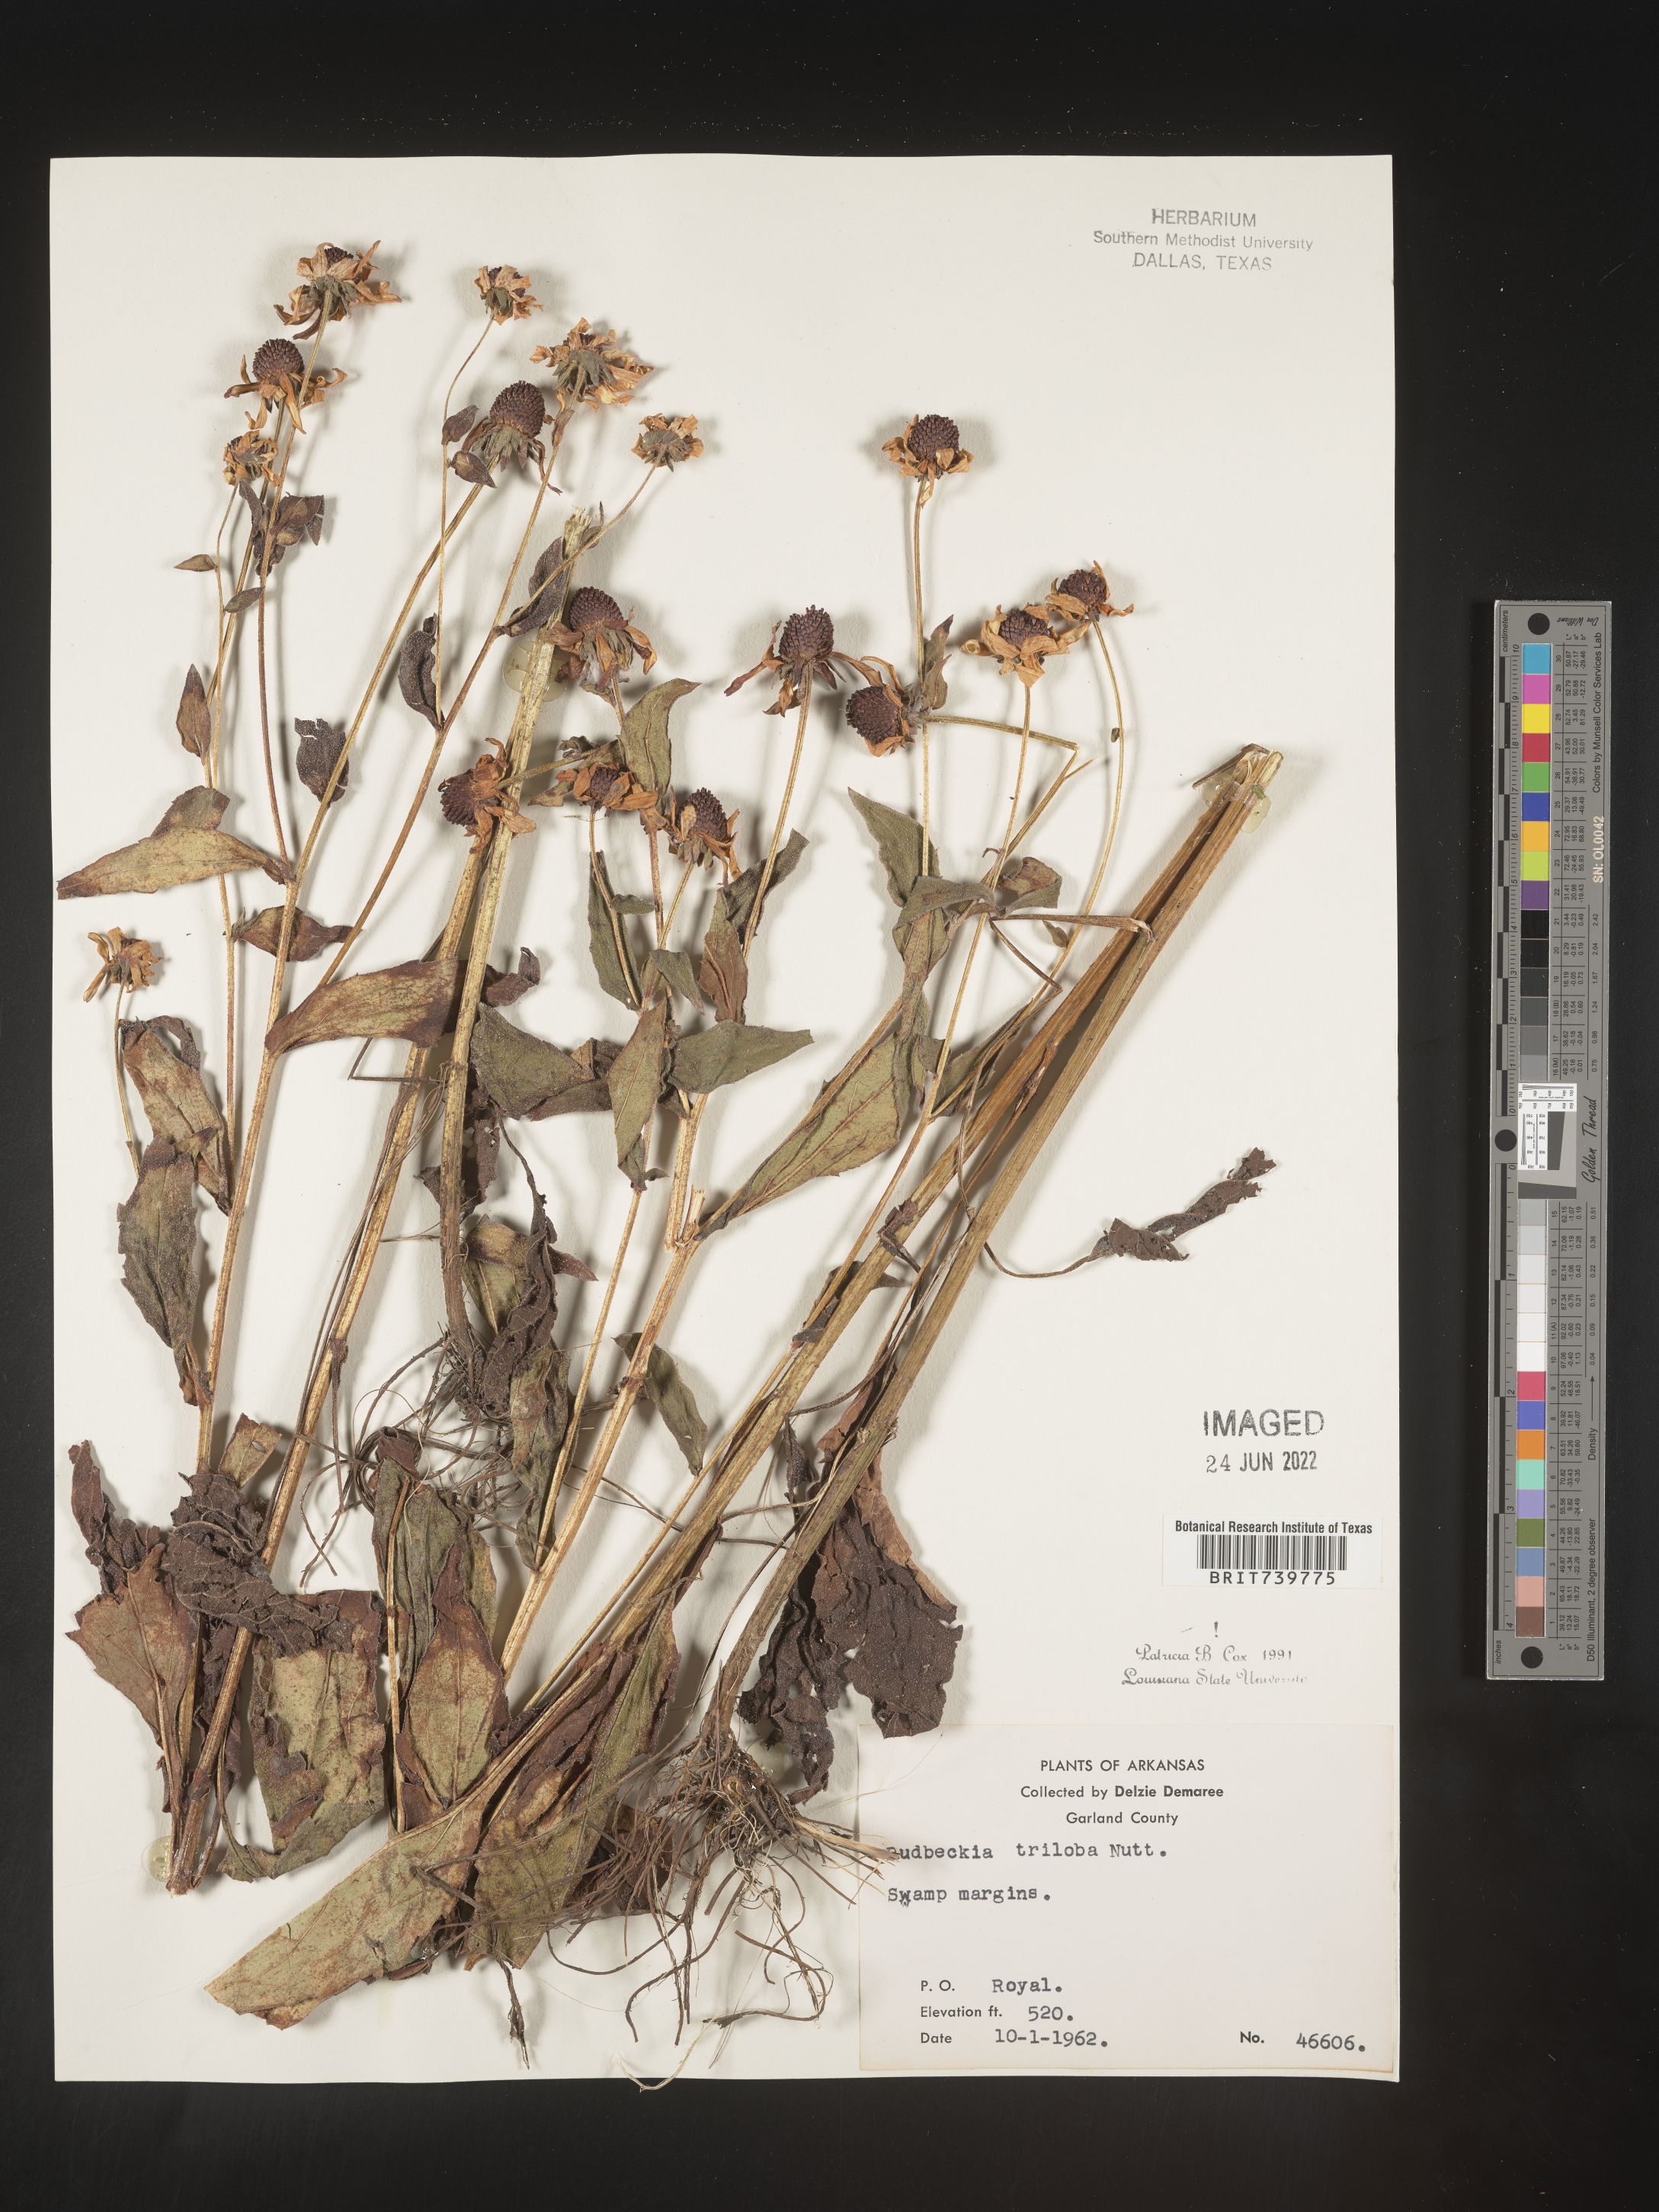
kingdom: Plantae
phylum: Tracheophyta
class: Magnoliopsida
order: Asterales
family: Asteraceae
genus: Rudbeckia
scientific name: Rudbeckia triloba
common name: Thin-leaved coneflower
